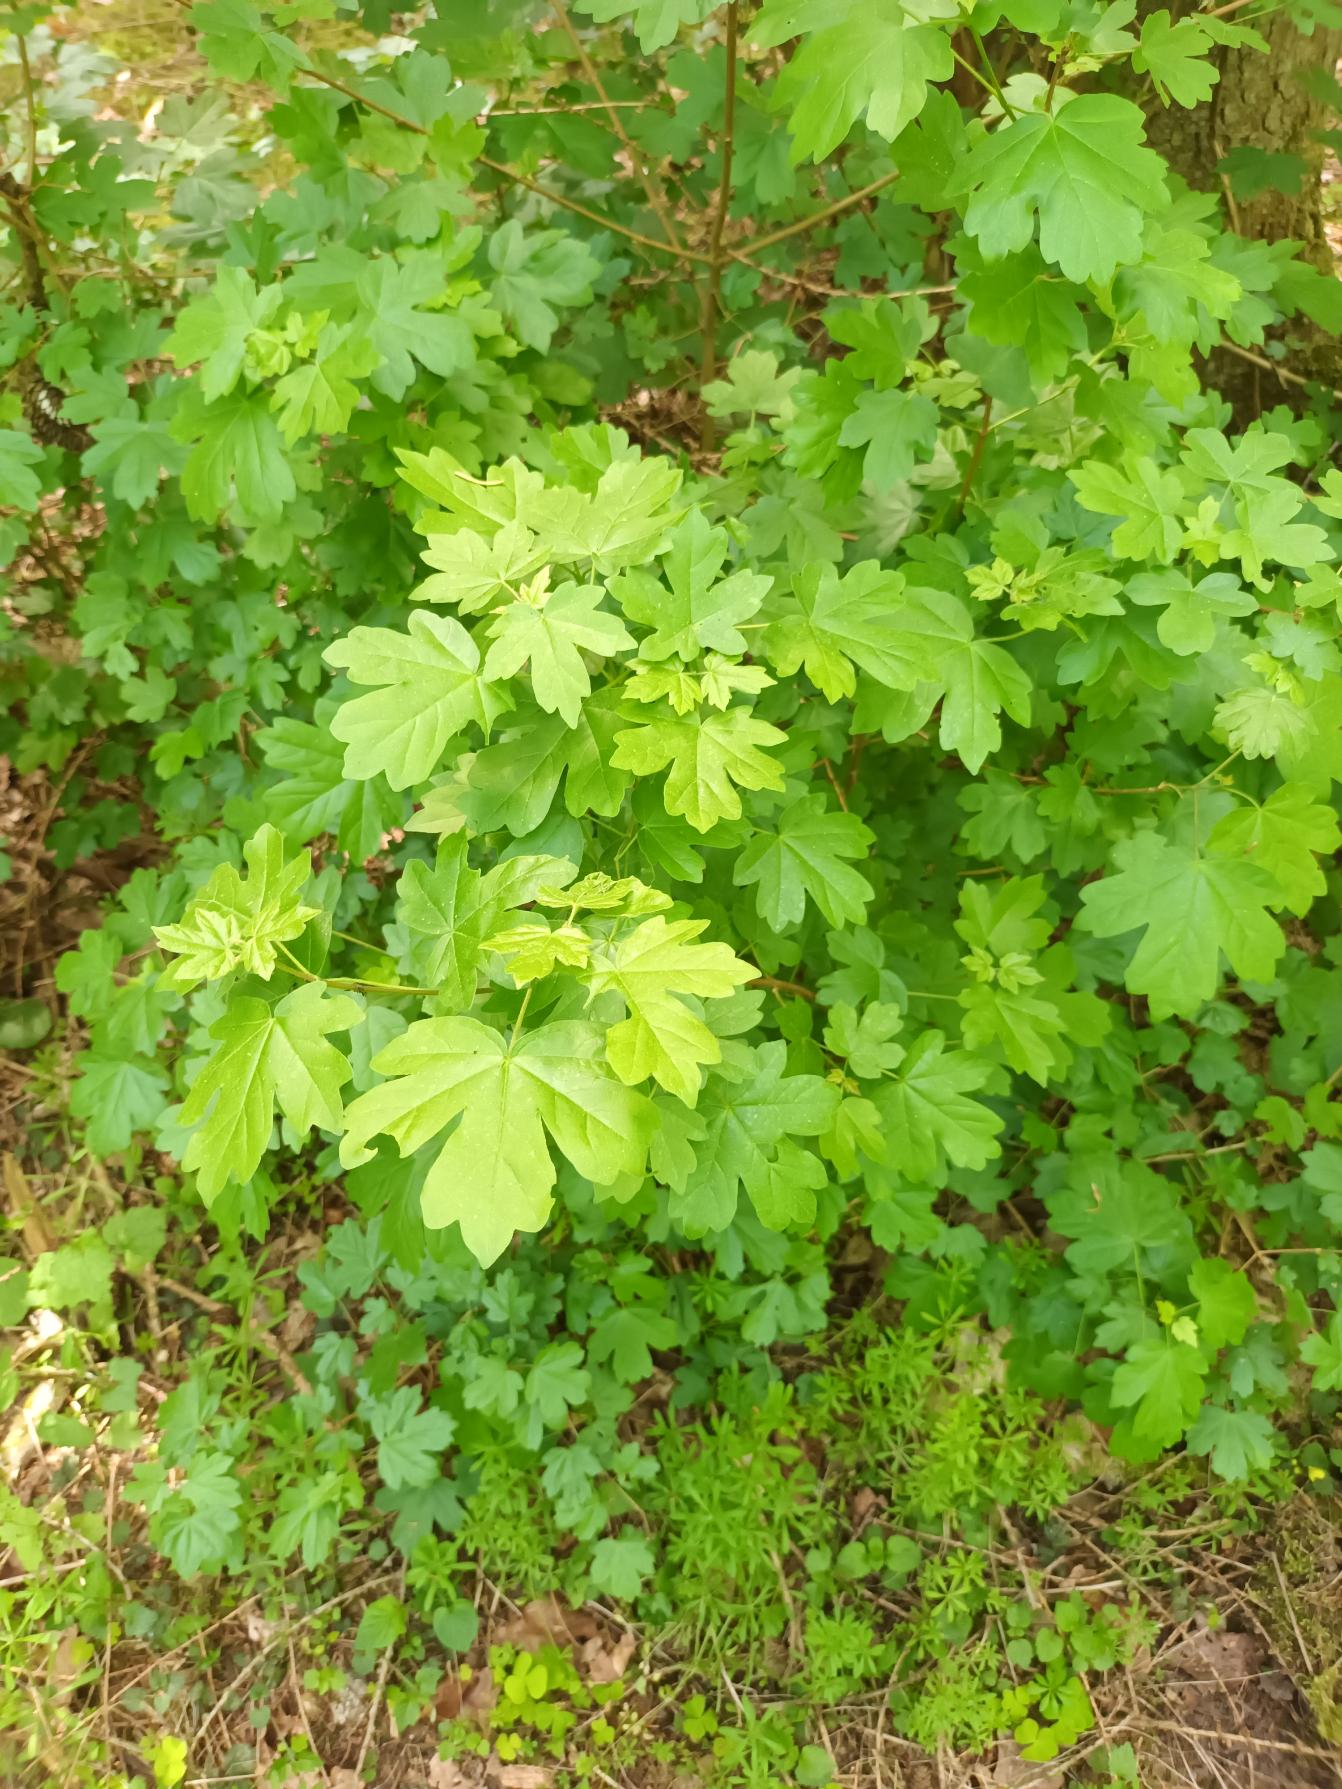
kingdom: Plantae
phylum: Tracheophyta
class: Magnoliopsida
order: Sapindales
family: Sapindaceae
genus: Acer
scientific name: Acer campestre
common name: Navr
